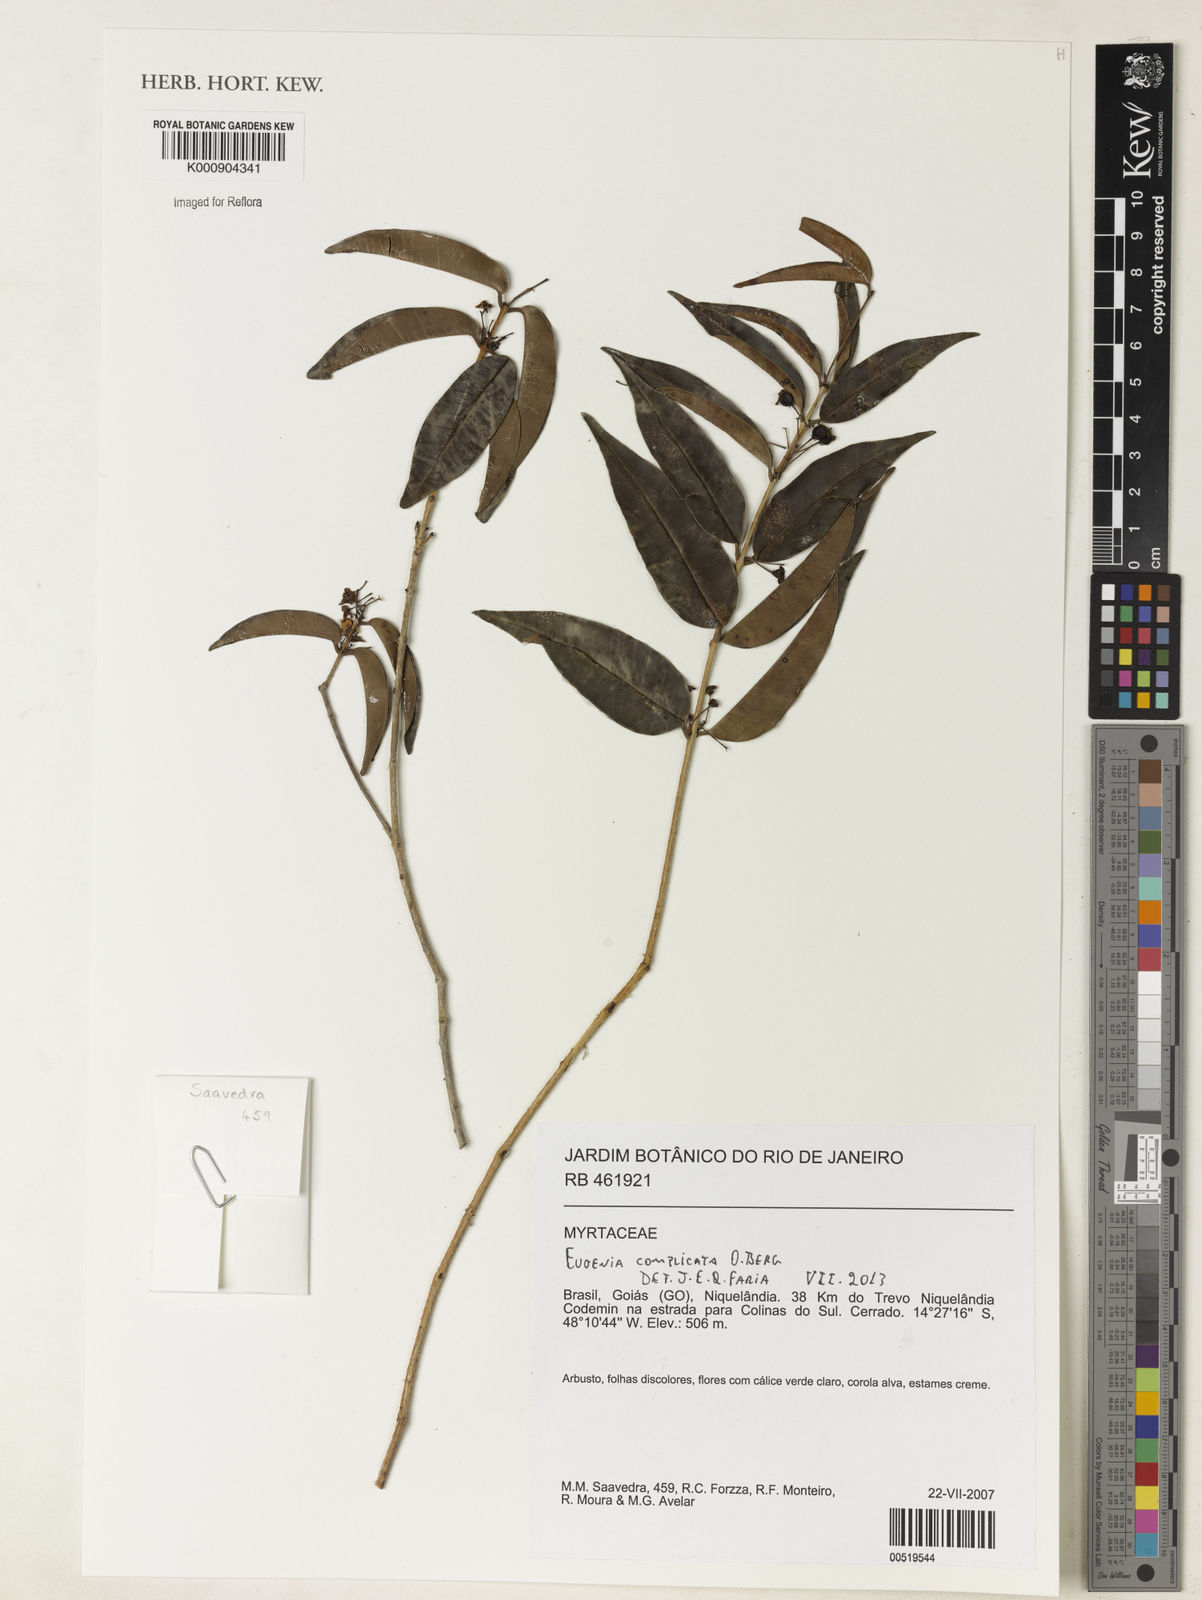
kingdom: Plantae
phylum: Tracheophyta
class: Magnoliopsida
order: Myrtales
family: Myrtaceae
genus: Eugenia
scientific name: Eugenia complicata
